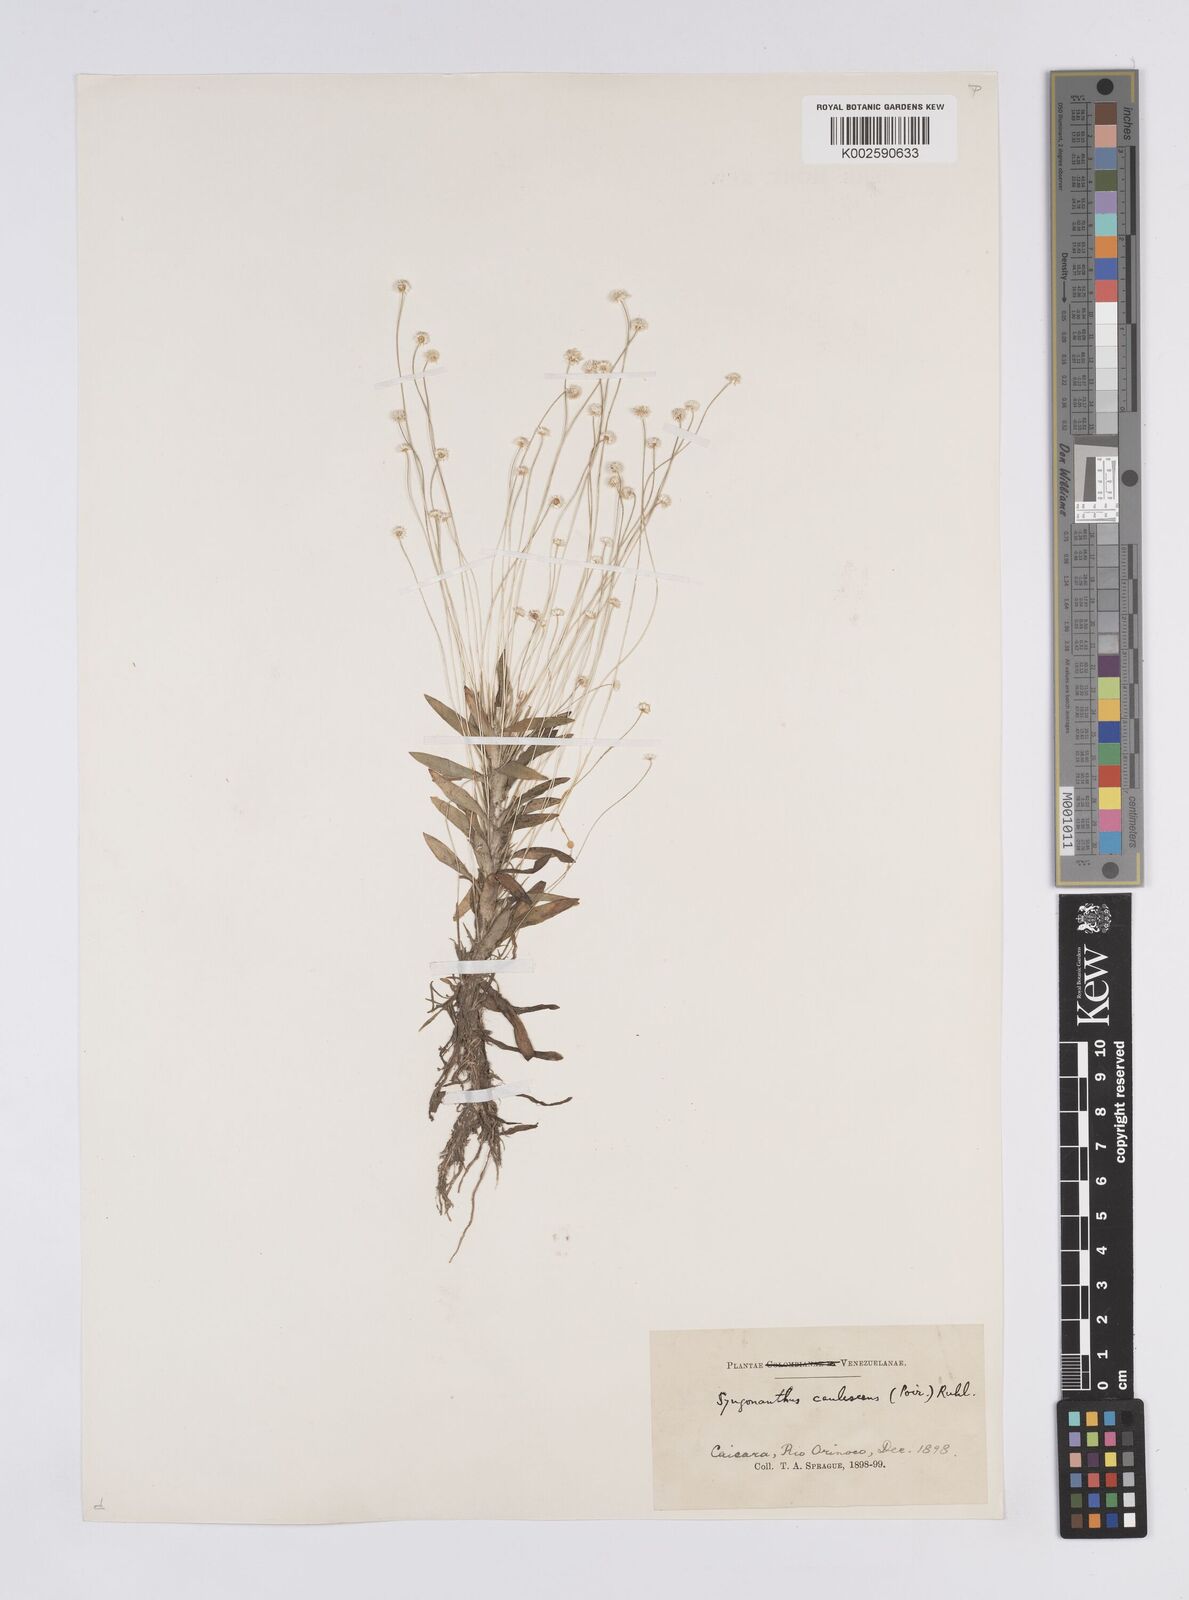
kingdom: Plantae
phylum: Tracheophyta
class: Liliopsida
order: Poales
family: Eriocaulaceae
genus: Syngonanthus
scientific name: Syngonanthus caulescens
